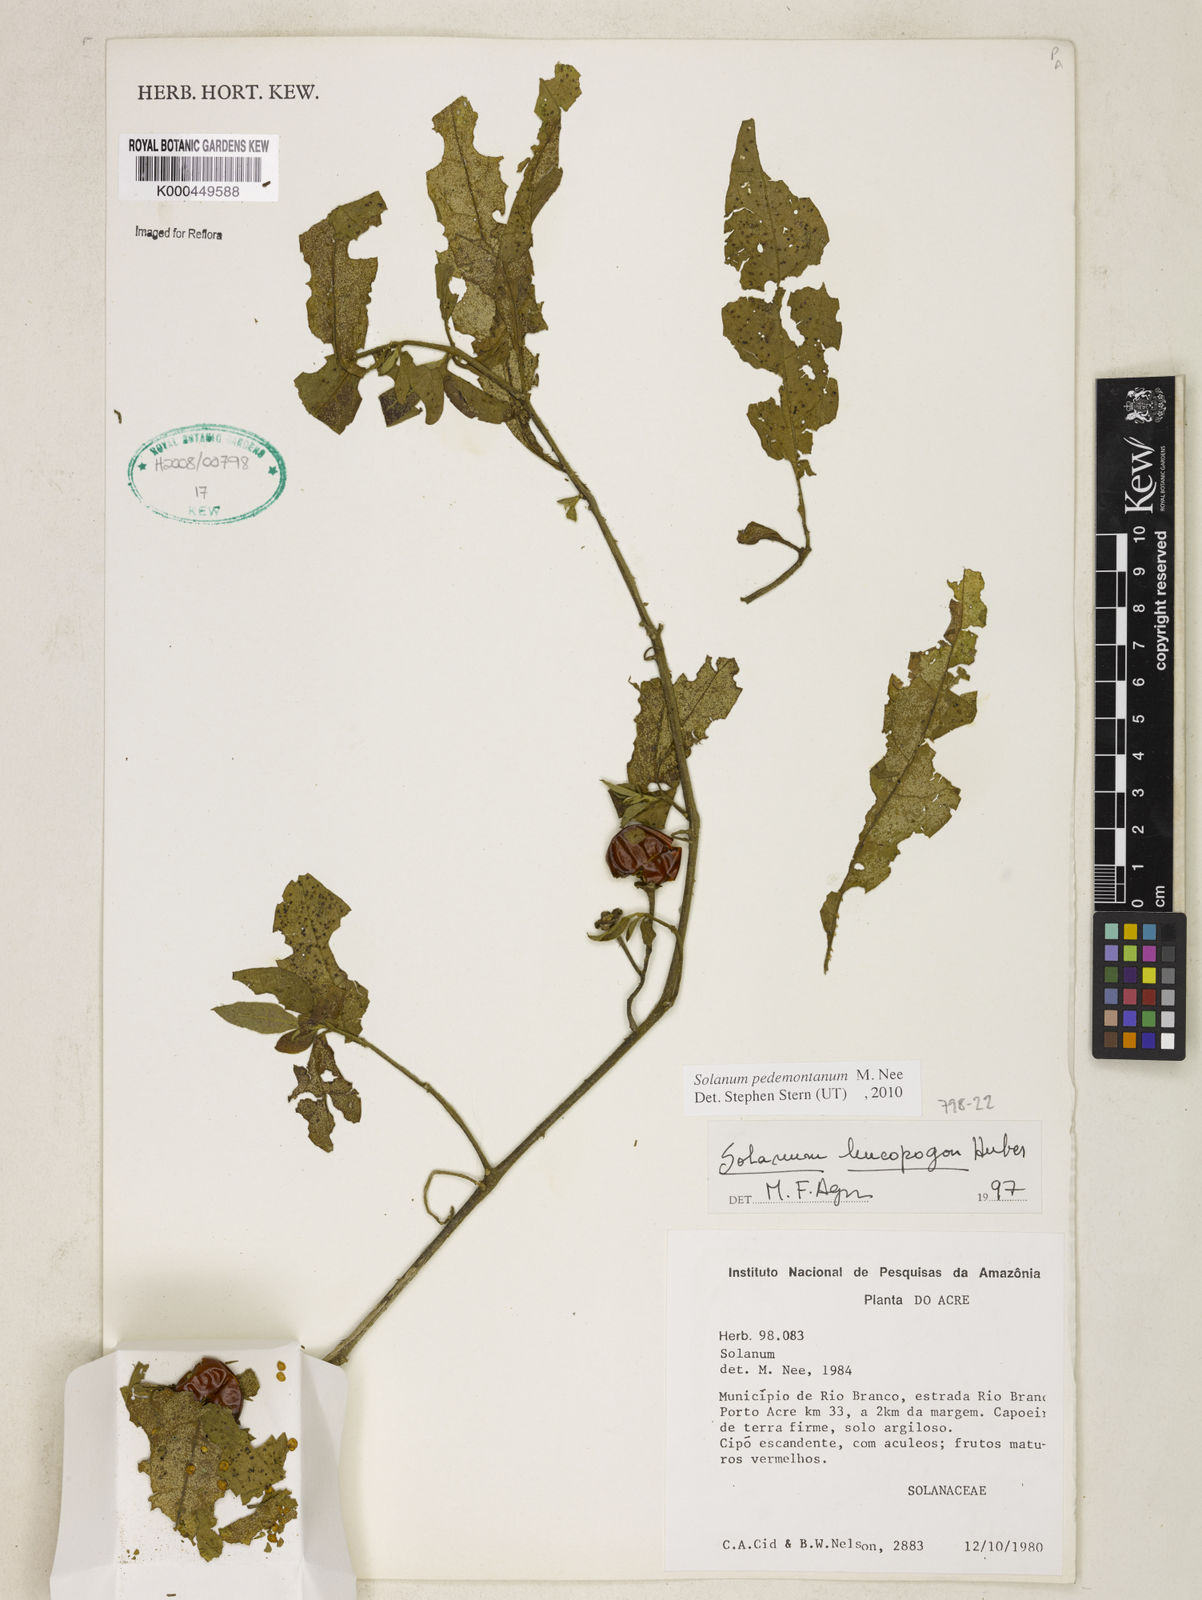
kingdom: Plantae
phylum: Tracheophyta
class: Magnoliopsida
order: Solanales
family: Solanaceae
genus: Solanum
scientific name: Solanum pedemontanum
